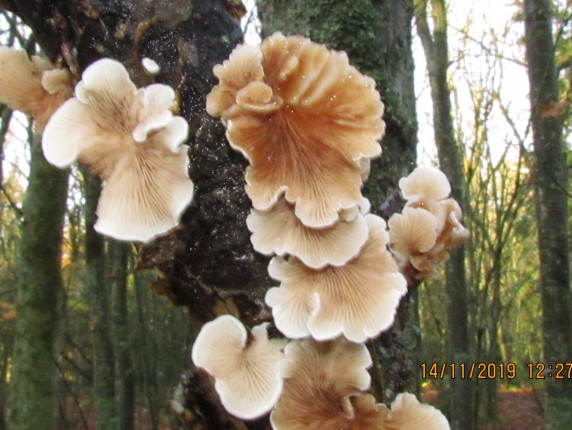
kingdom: Fungi
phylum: Basidiomycota
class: Agaricomycetes
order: Agaricales
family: Crepidotaceae
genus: Crepidotus
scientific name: Crepidotus
